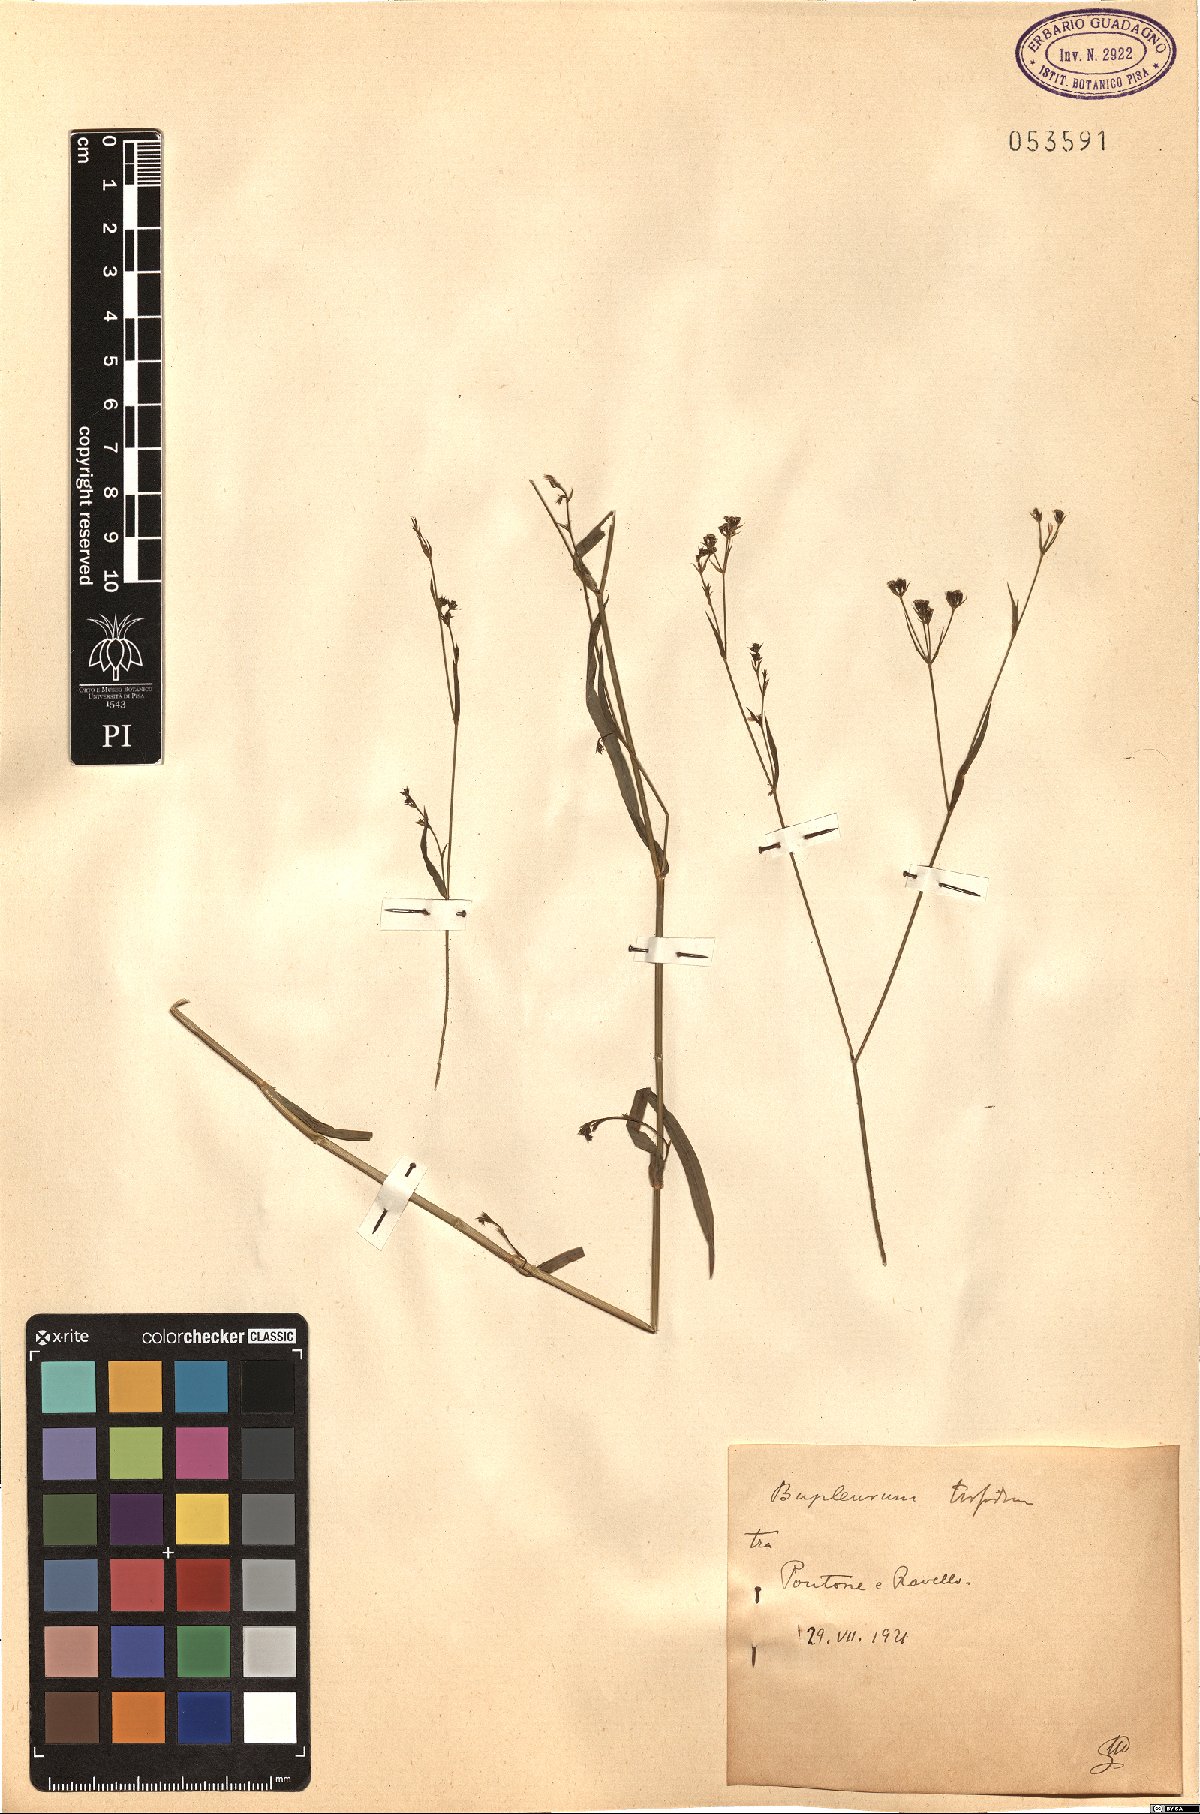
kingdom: Plantae
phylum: Tracheophyta
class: Magnoliopsida
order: Apiales
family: Apiaceae
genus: Bupleurum
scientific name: Bupleurum praealtum
